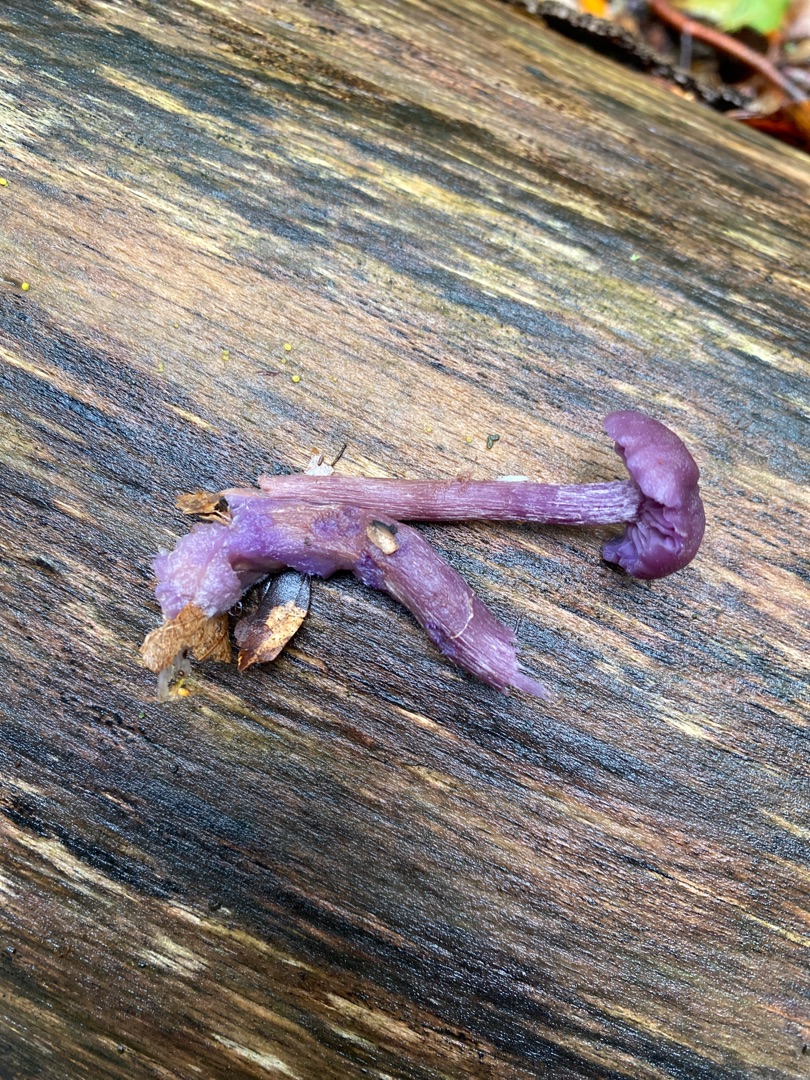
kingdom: Fungi
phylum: Basidiomycota
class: Agaricomycetes
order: Agaricales
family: Hydnangiaceae
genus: Laccaria
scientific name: Laccaria amethystina
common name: Violet ametysthat
